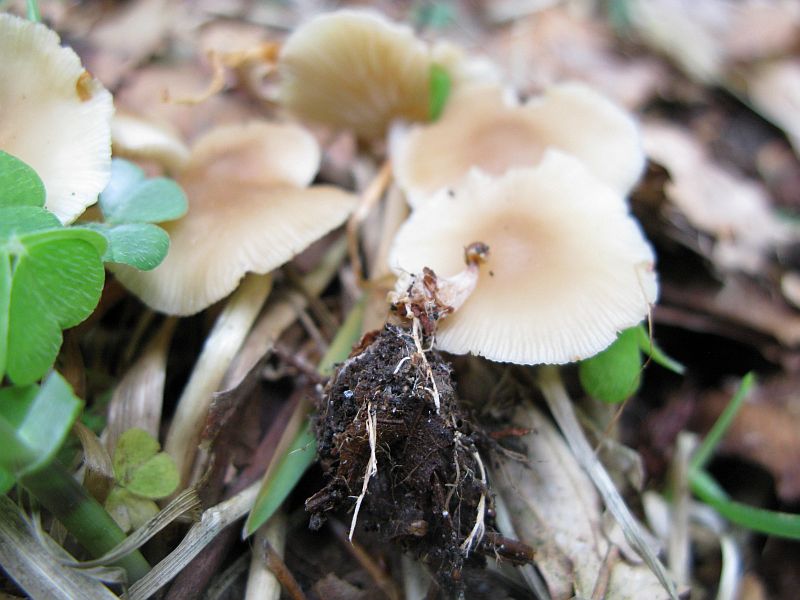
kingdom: Fungi
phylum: Basidiomycota
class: Agaricomycetes
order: Agaricales
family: Omphalotaceae
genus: Gymnopus
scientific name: Gymnopus aquosus
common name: bleg fladhat
